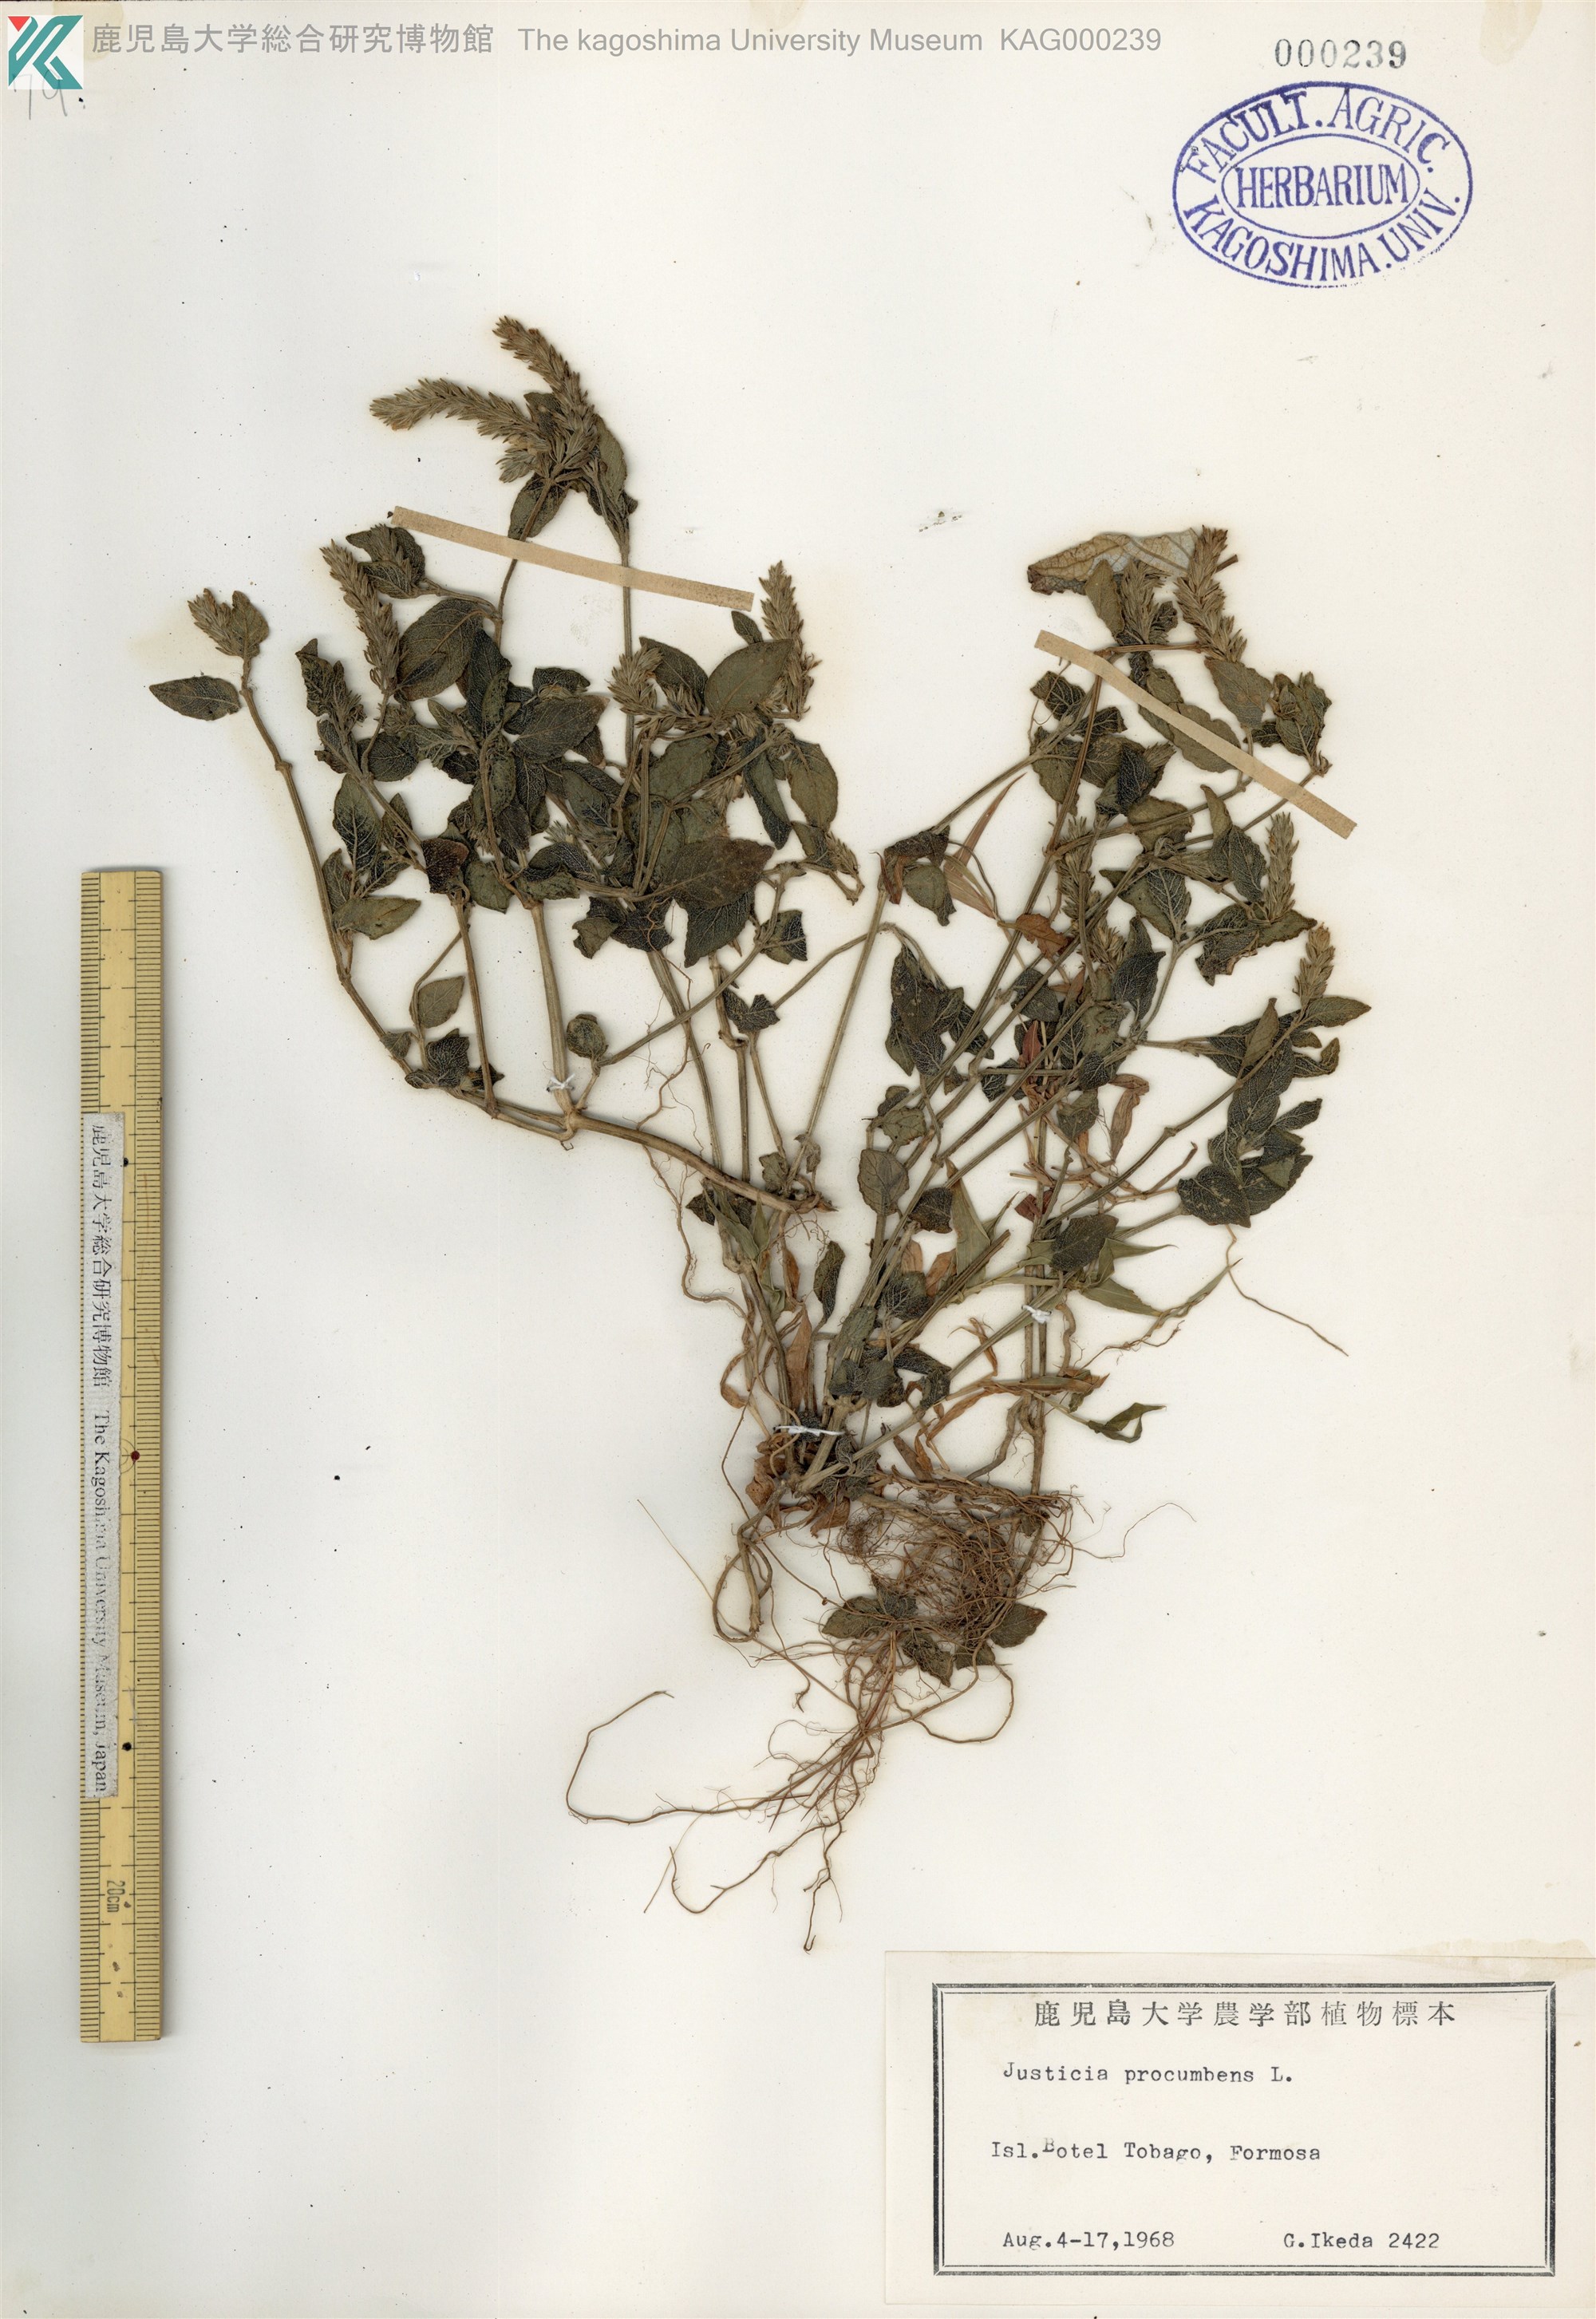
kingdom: Plantae
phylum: Tracheophyta
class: Magnoliopsida
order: Lamiales
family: Acanthaceae
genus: Rostellularia
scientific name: Rostellularia procumbens
